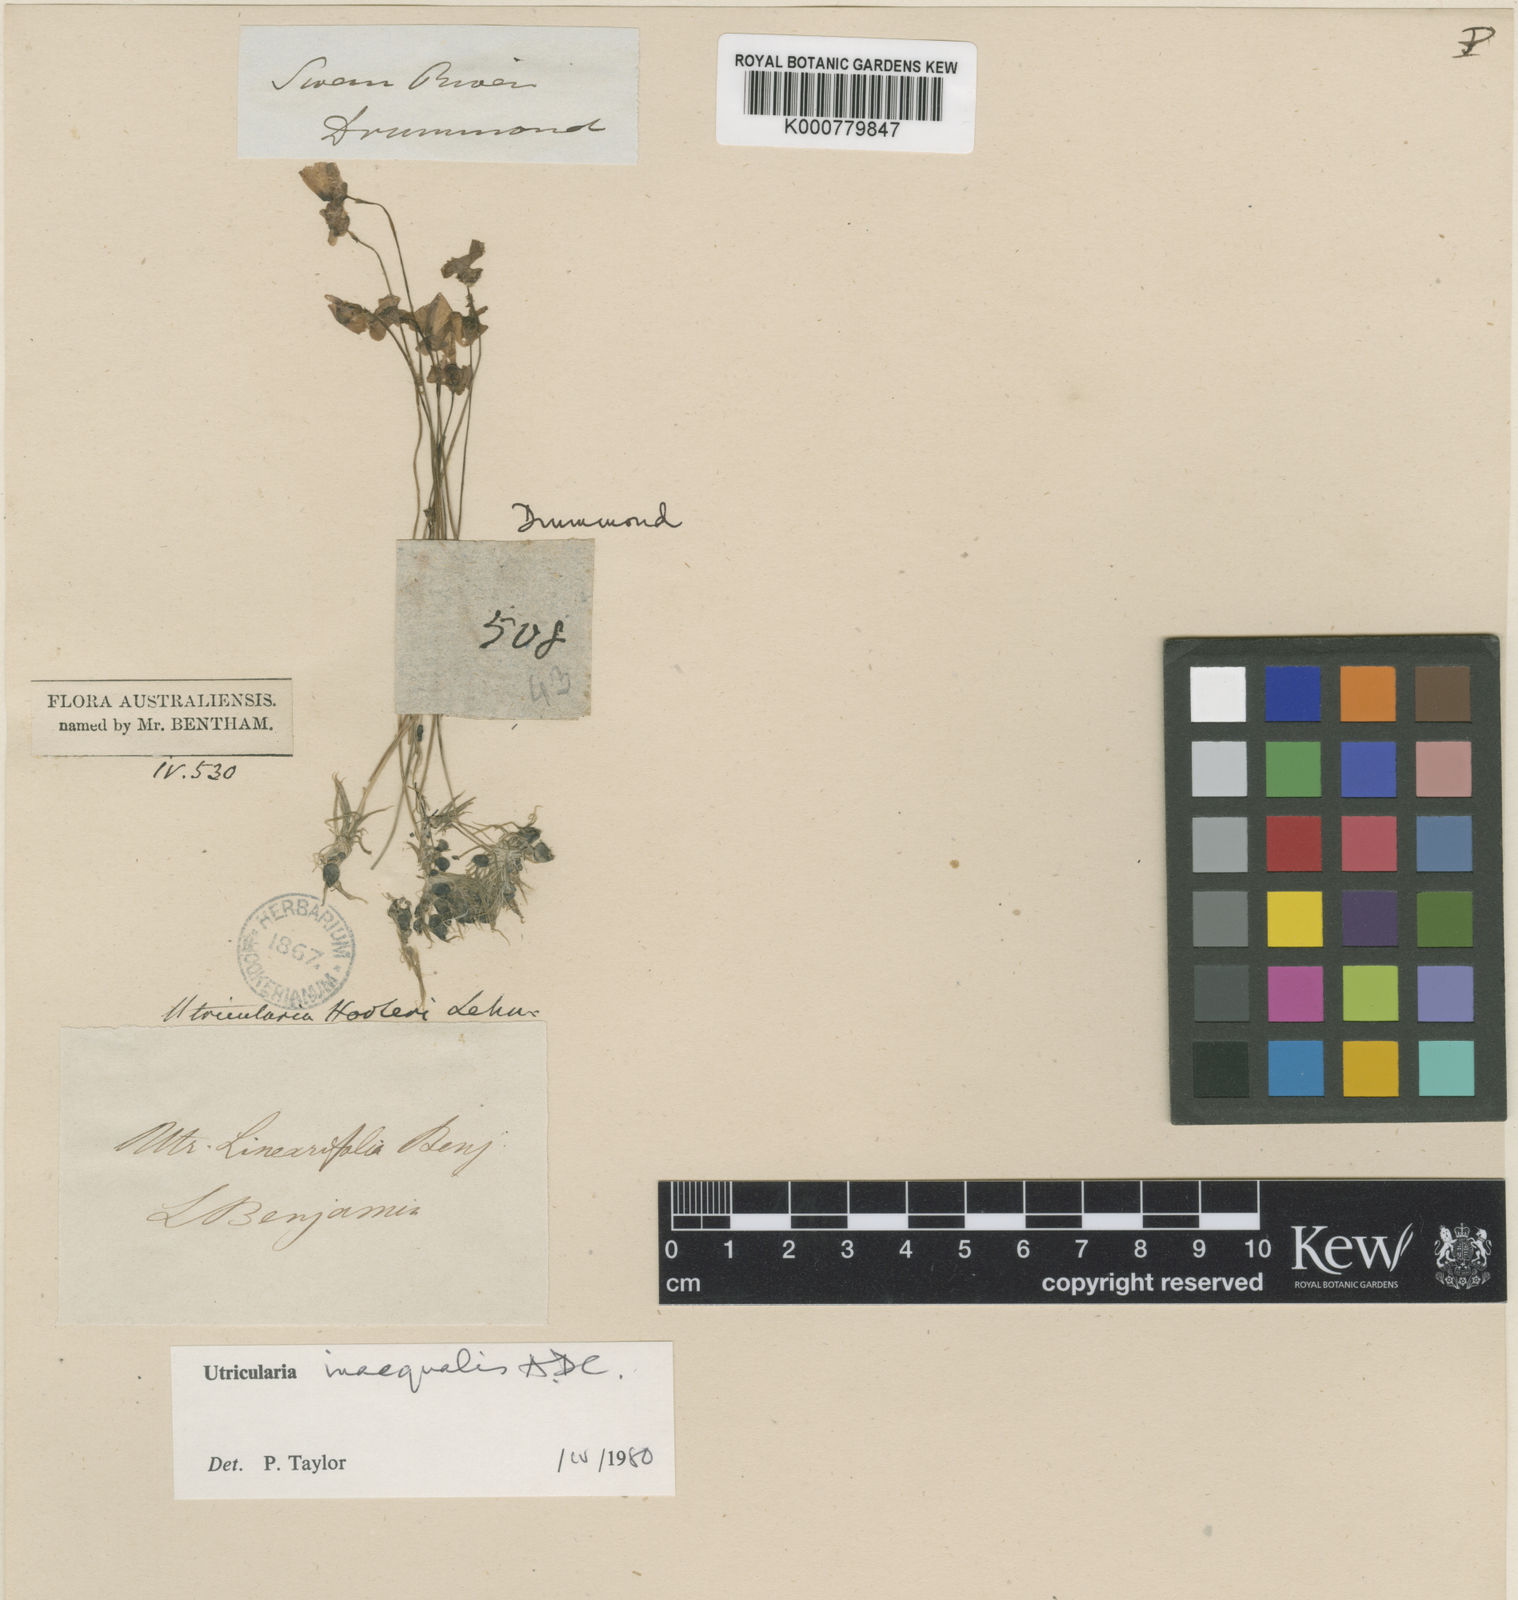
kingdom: Plantae
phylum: Tracheophyta
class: Magnoliopsida
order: Lamiales
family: Lentibulariaceae
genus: Utricularia
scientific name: Utricularia dichotoma
